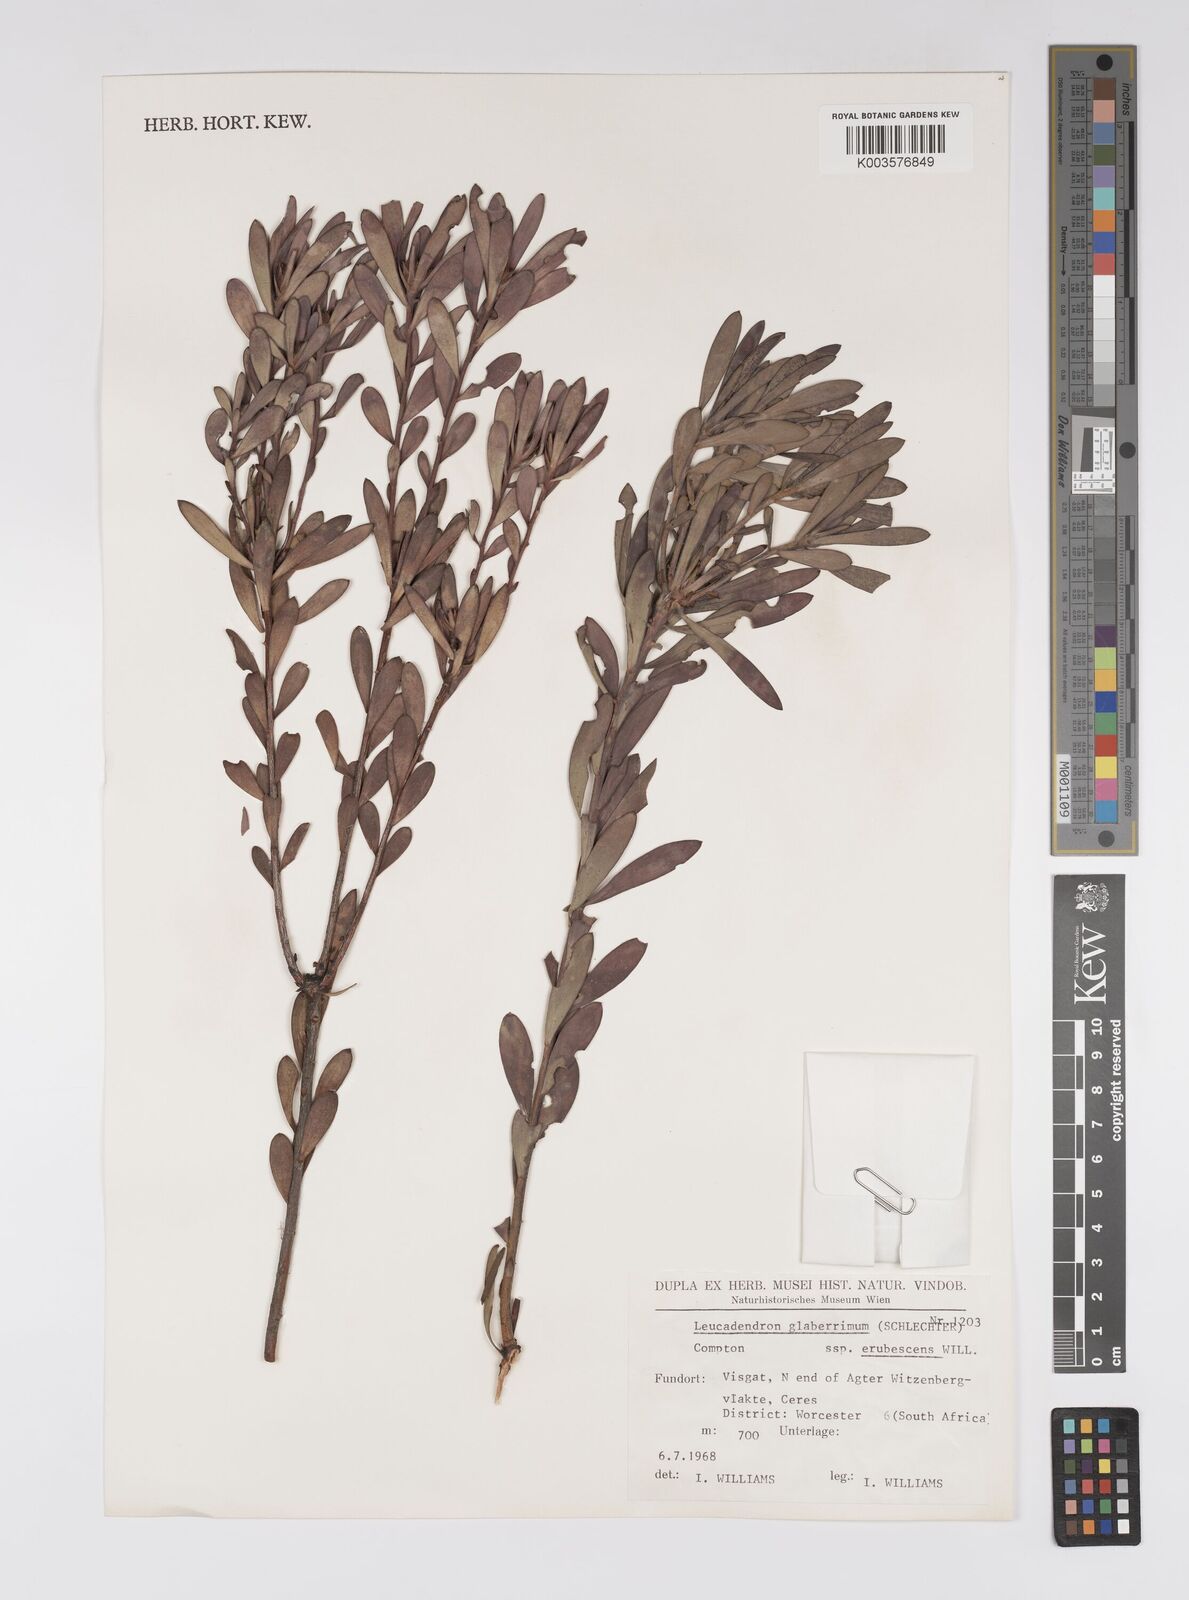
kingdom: Plantae
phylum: Tracheophyta
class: Magnoliopsida
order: Proteales
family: Proteaceae
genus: Leucadendron
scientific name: Leucadendron glaberrimum
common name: Common oily conebush
